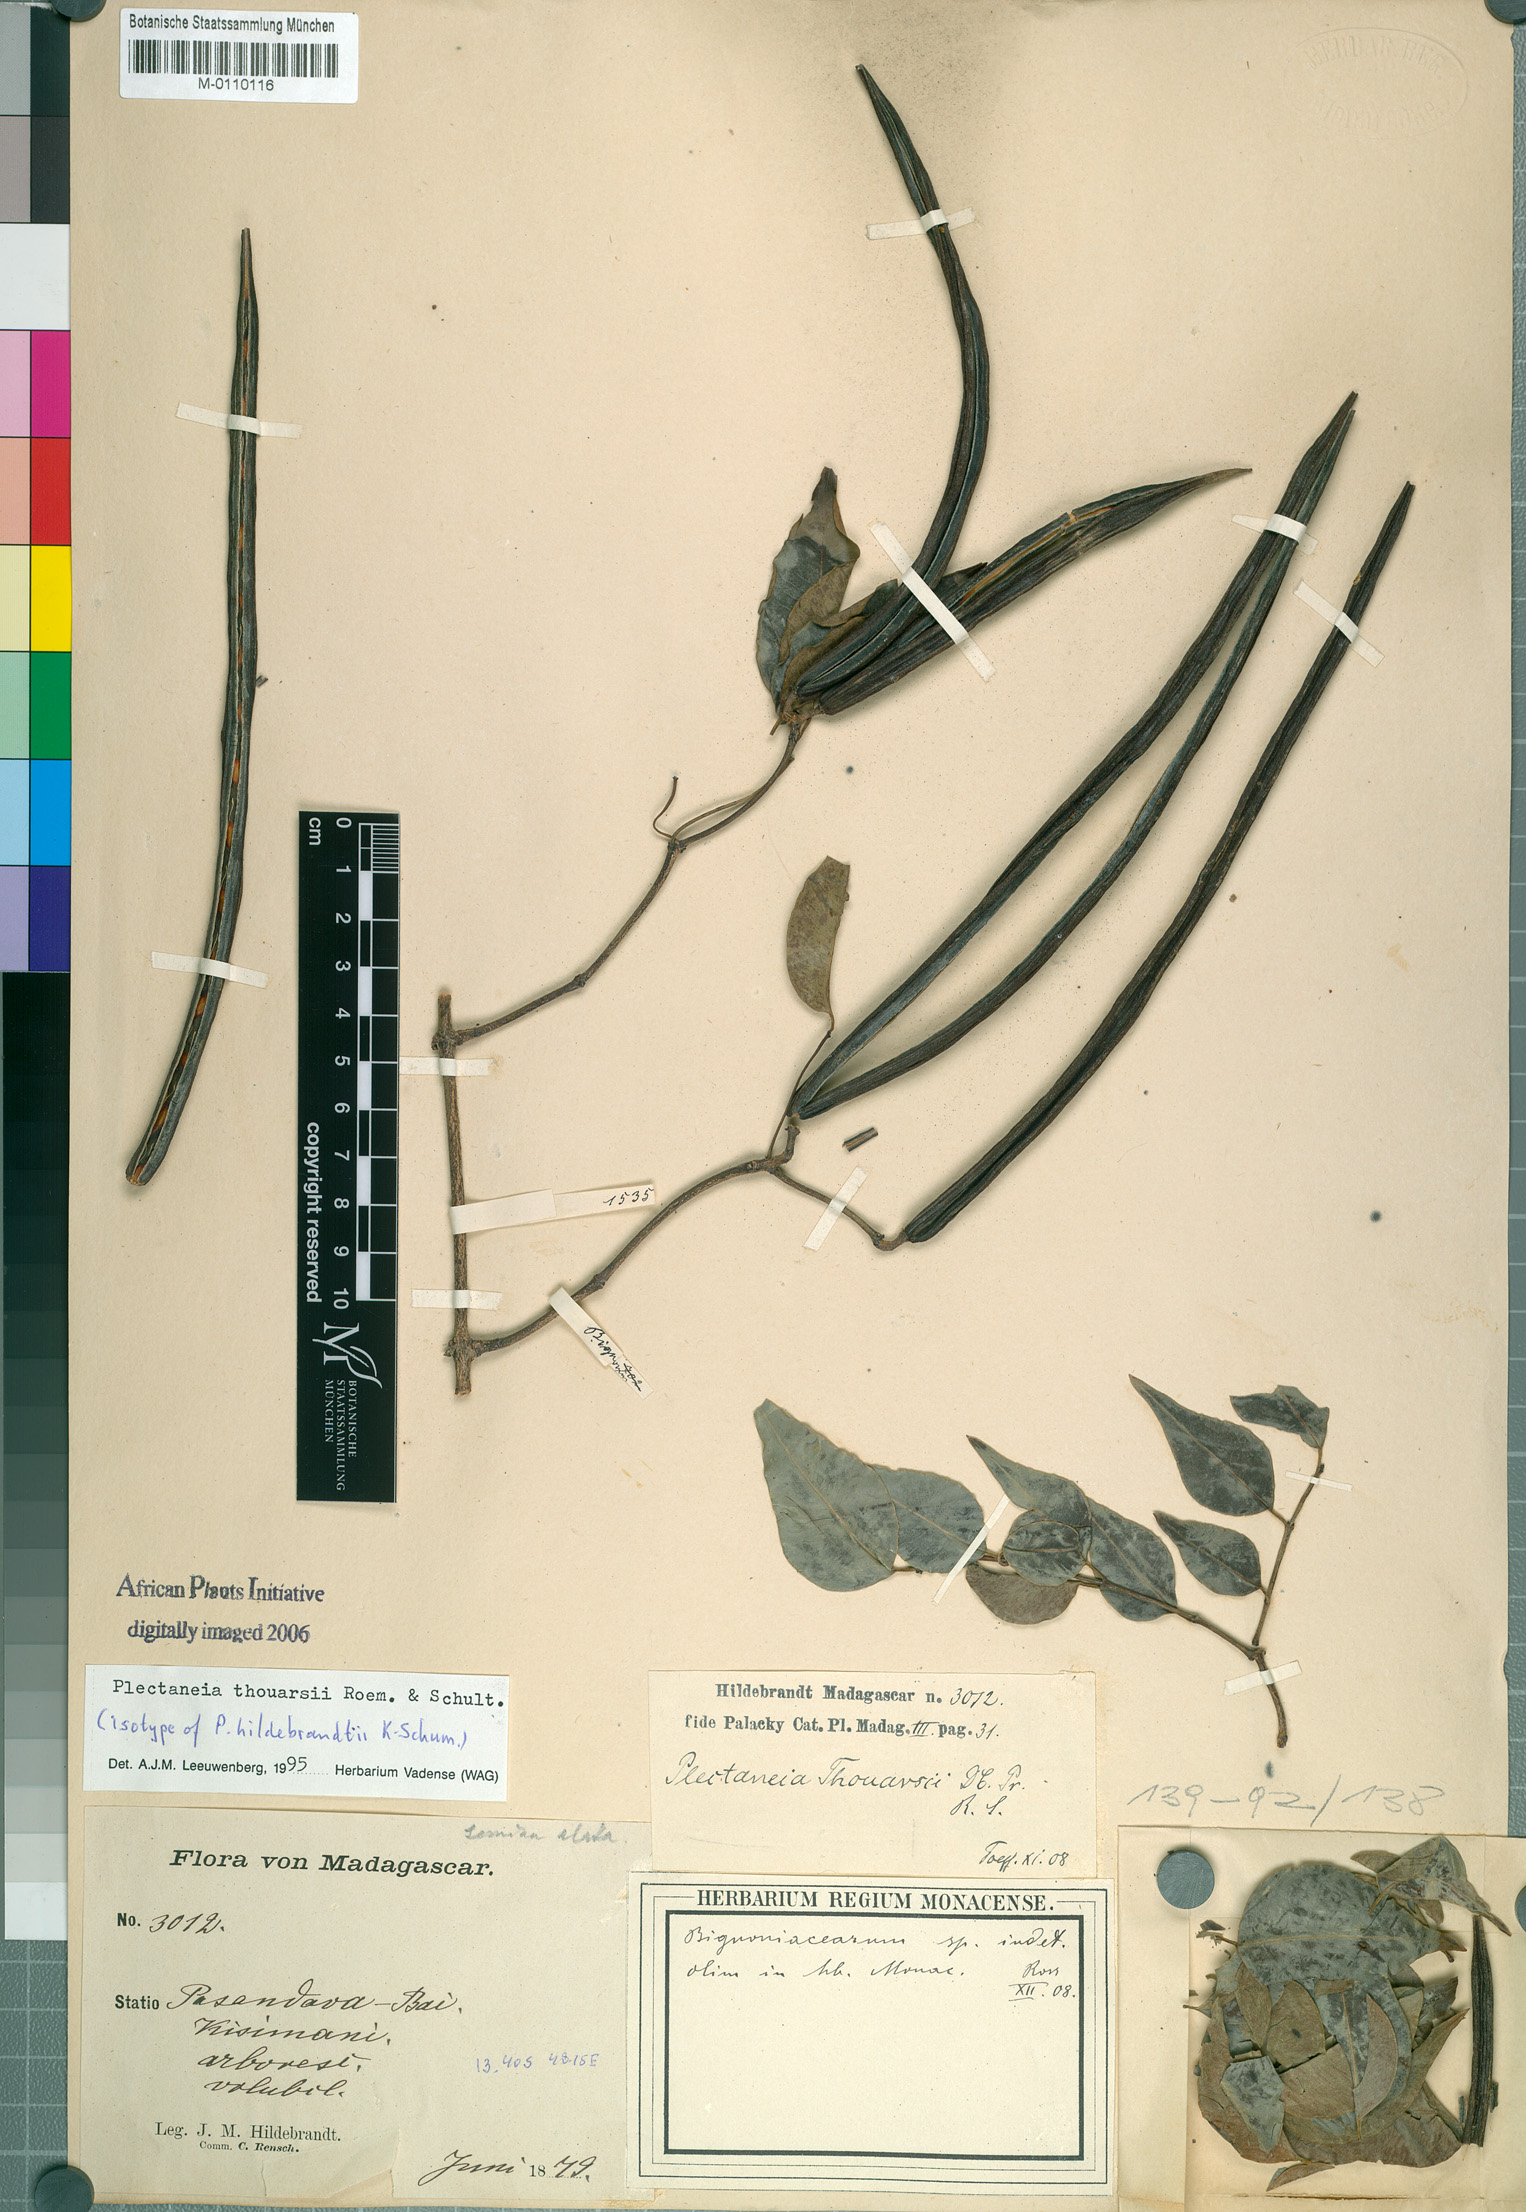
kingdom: Plantae
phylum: Tracheophyta
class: Magnoliopsida
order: Gentianales
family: Apocynaceae
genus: Plectaneia
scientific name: Plectaneia thouarsii
